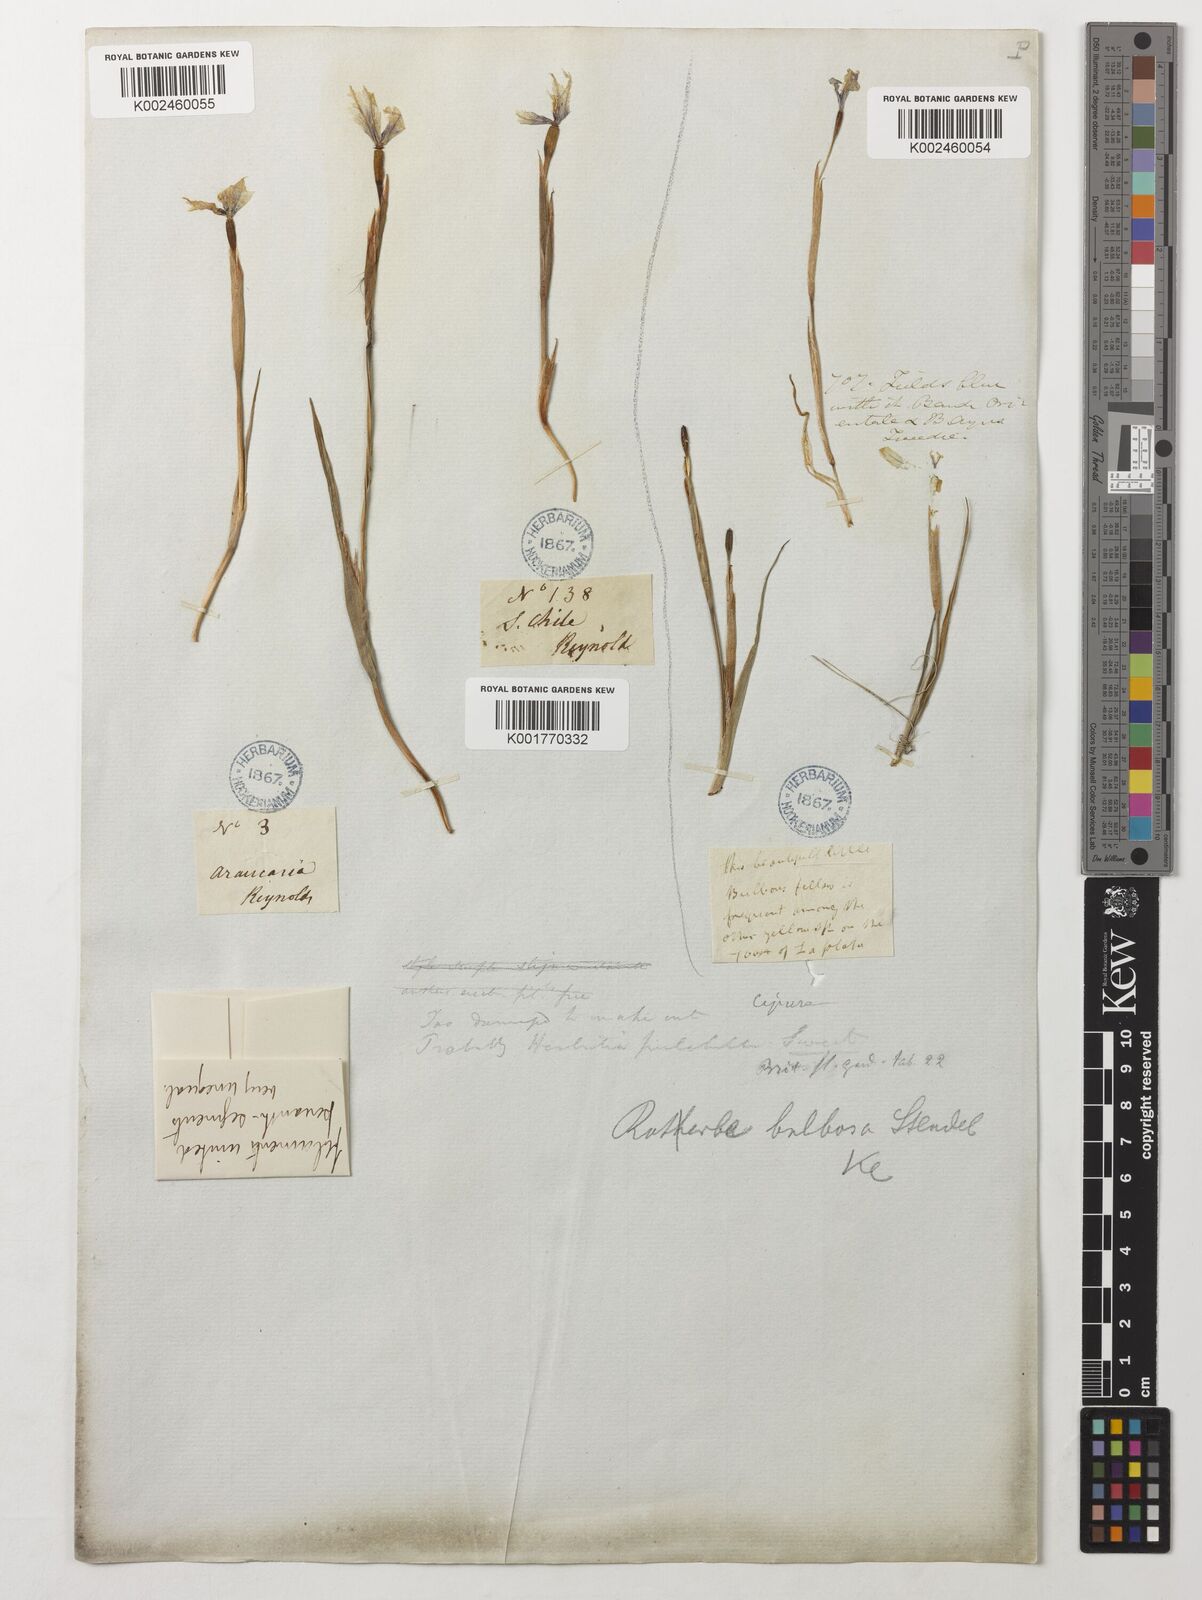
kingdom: Plantae
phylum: Tracheophyta
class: Liliopsida
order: Asparagales
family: Iridaceae
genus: Herbertia
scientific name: Herbertia
